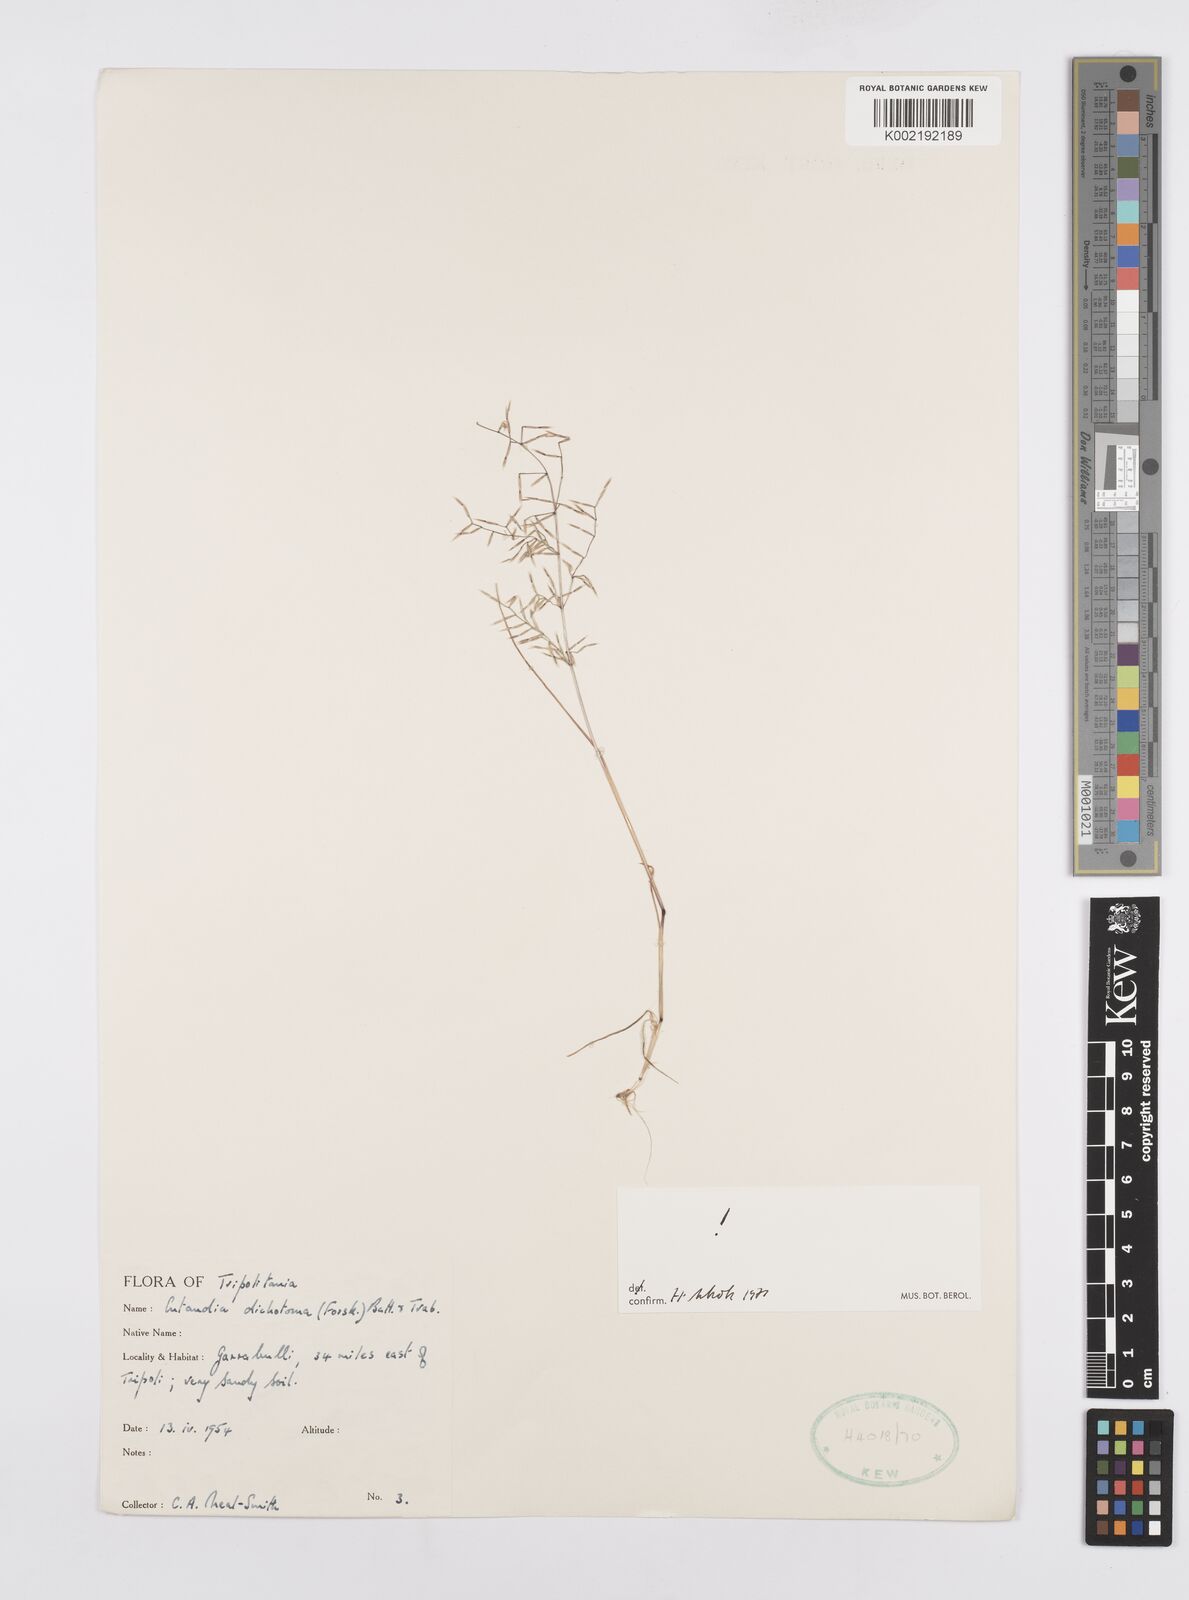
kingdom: Plantae
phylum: Tracheophyta
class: Liliopsida
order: Poales
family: Poaceae
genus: Cutandia
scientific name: Cutandia dichotoma
